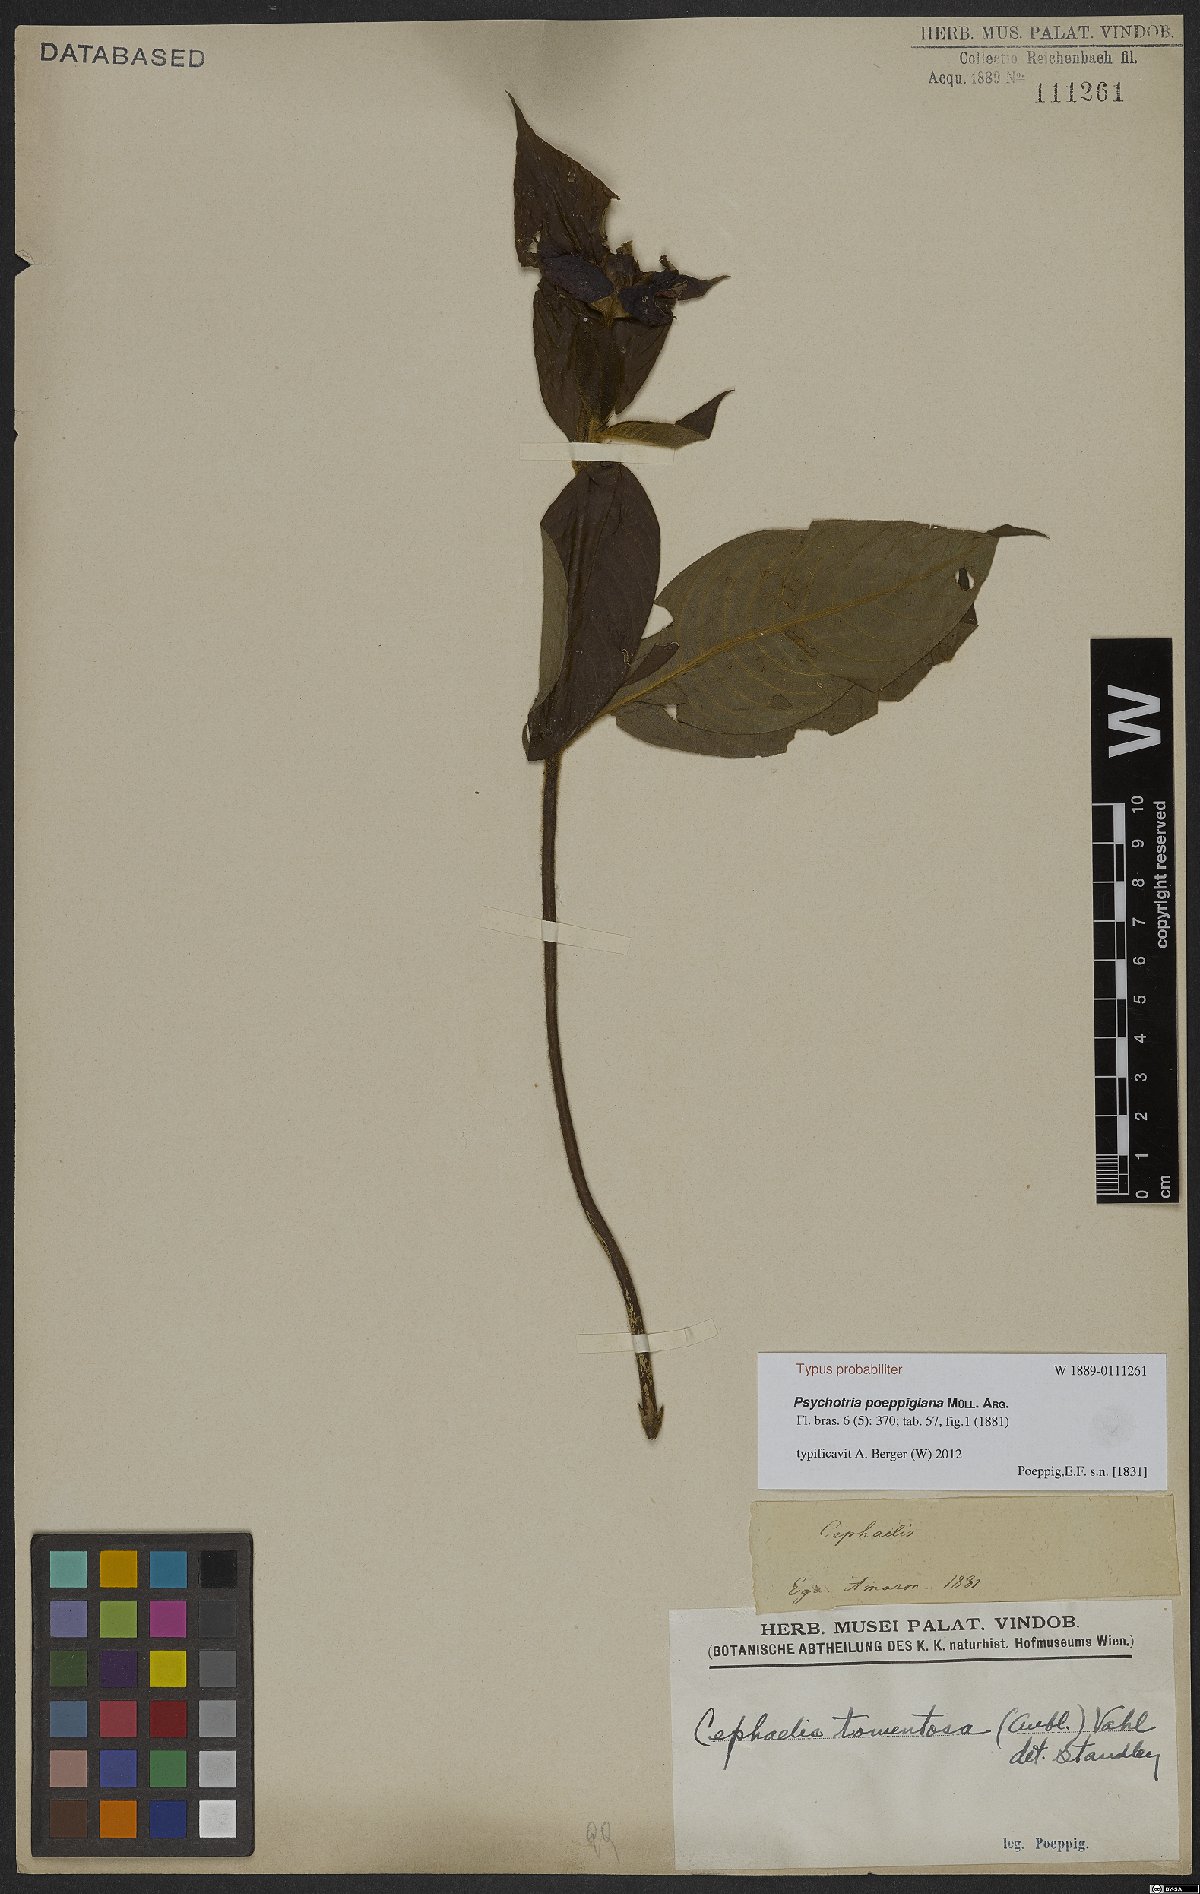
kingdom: Plantae
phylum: Tracheophyta
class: Magnoliopsida
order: Gentianales
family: Rubiaceae
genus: Palicourea
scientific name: Palicourea tomentosa
